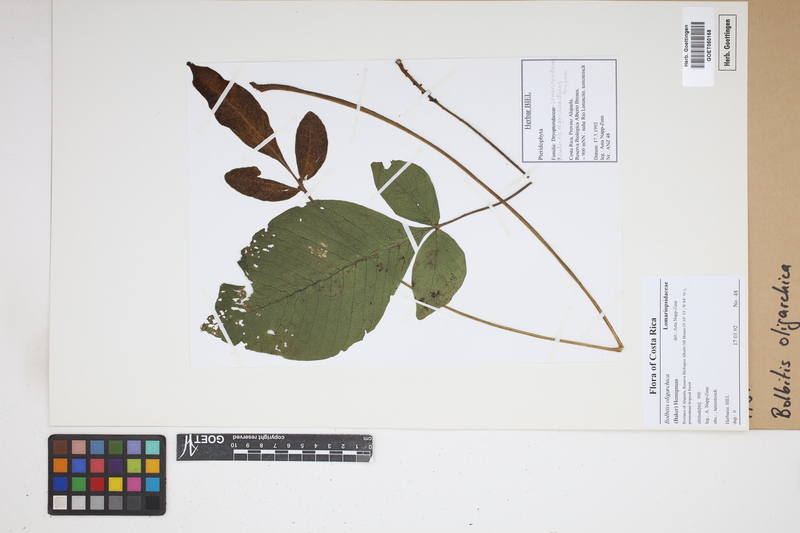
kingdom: Plantae
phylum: Tracheophyta
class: Polypodiopsida
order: Polypodiales
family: Dryopteridaceae
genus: Mickelia
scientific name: Mickelia oligarchica
